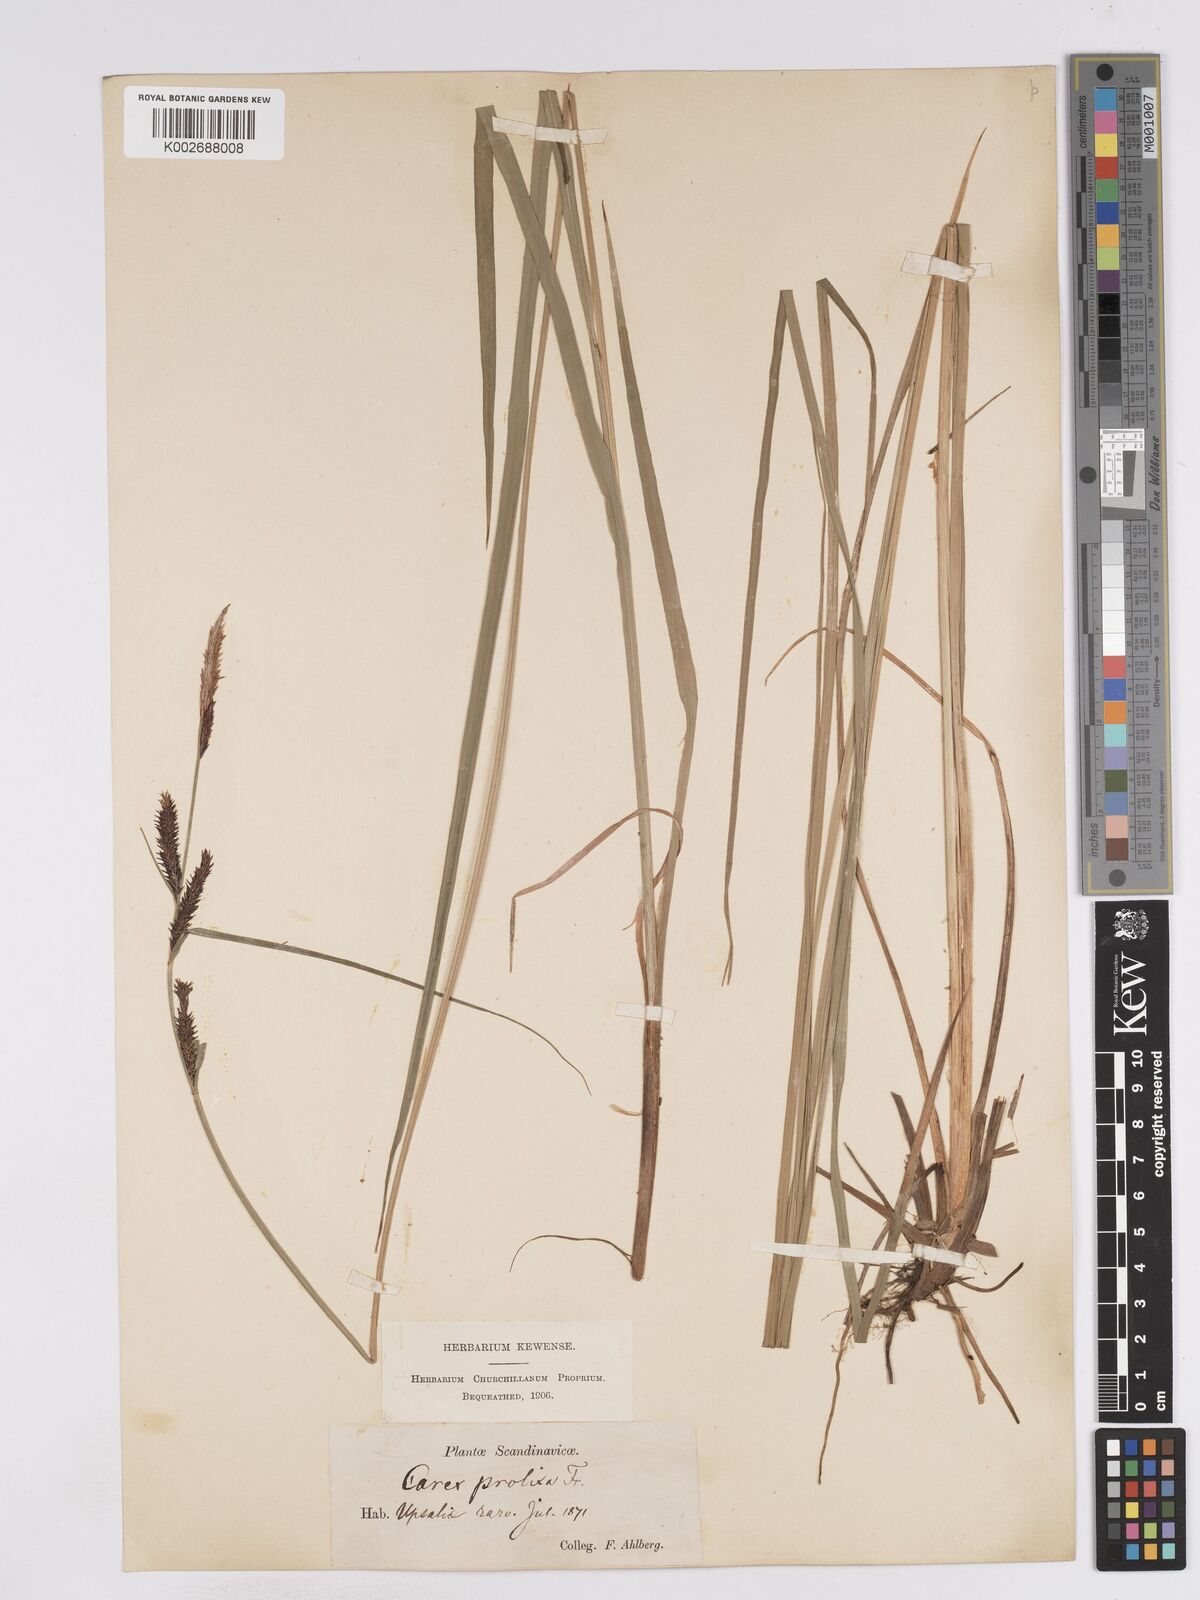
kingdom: Plantae
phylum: Tracheophyta
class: Liliopsida
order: Poales
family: Cyperaceae
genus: Carex
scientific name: Carex acuta
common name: Slender tufted-sedge
